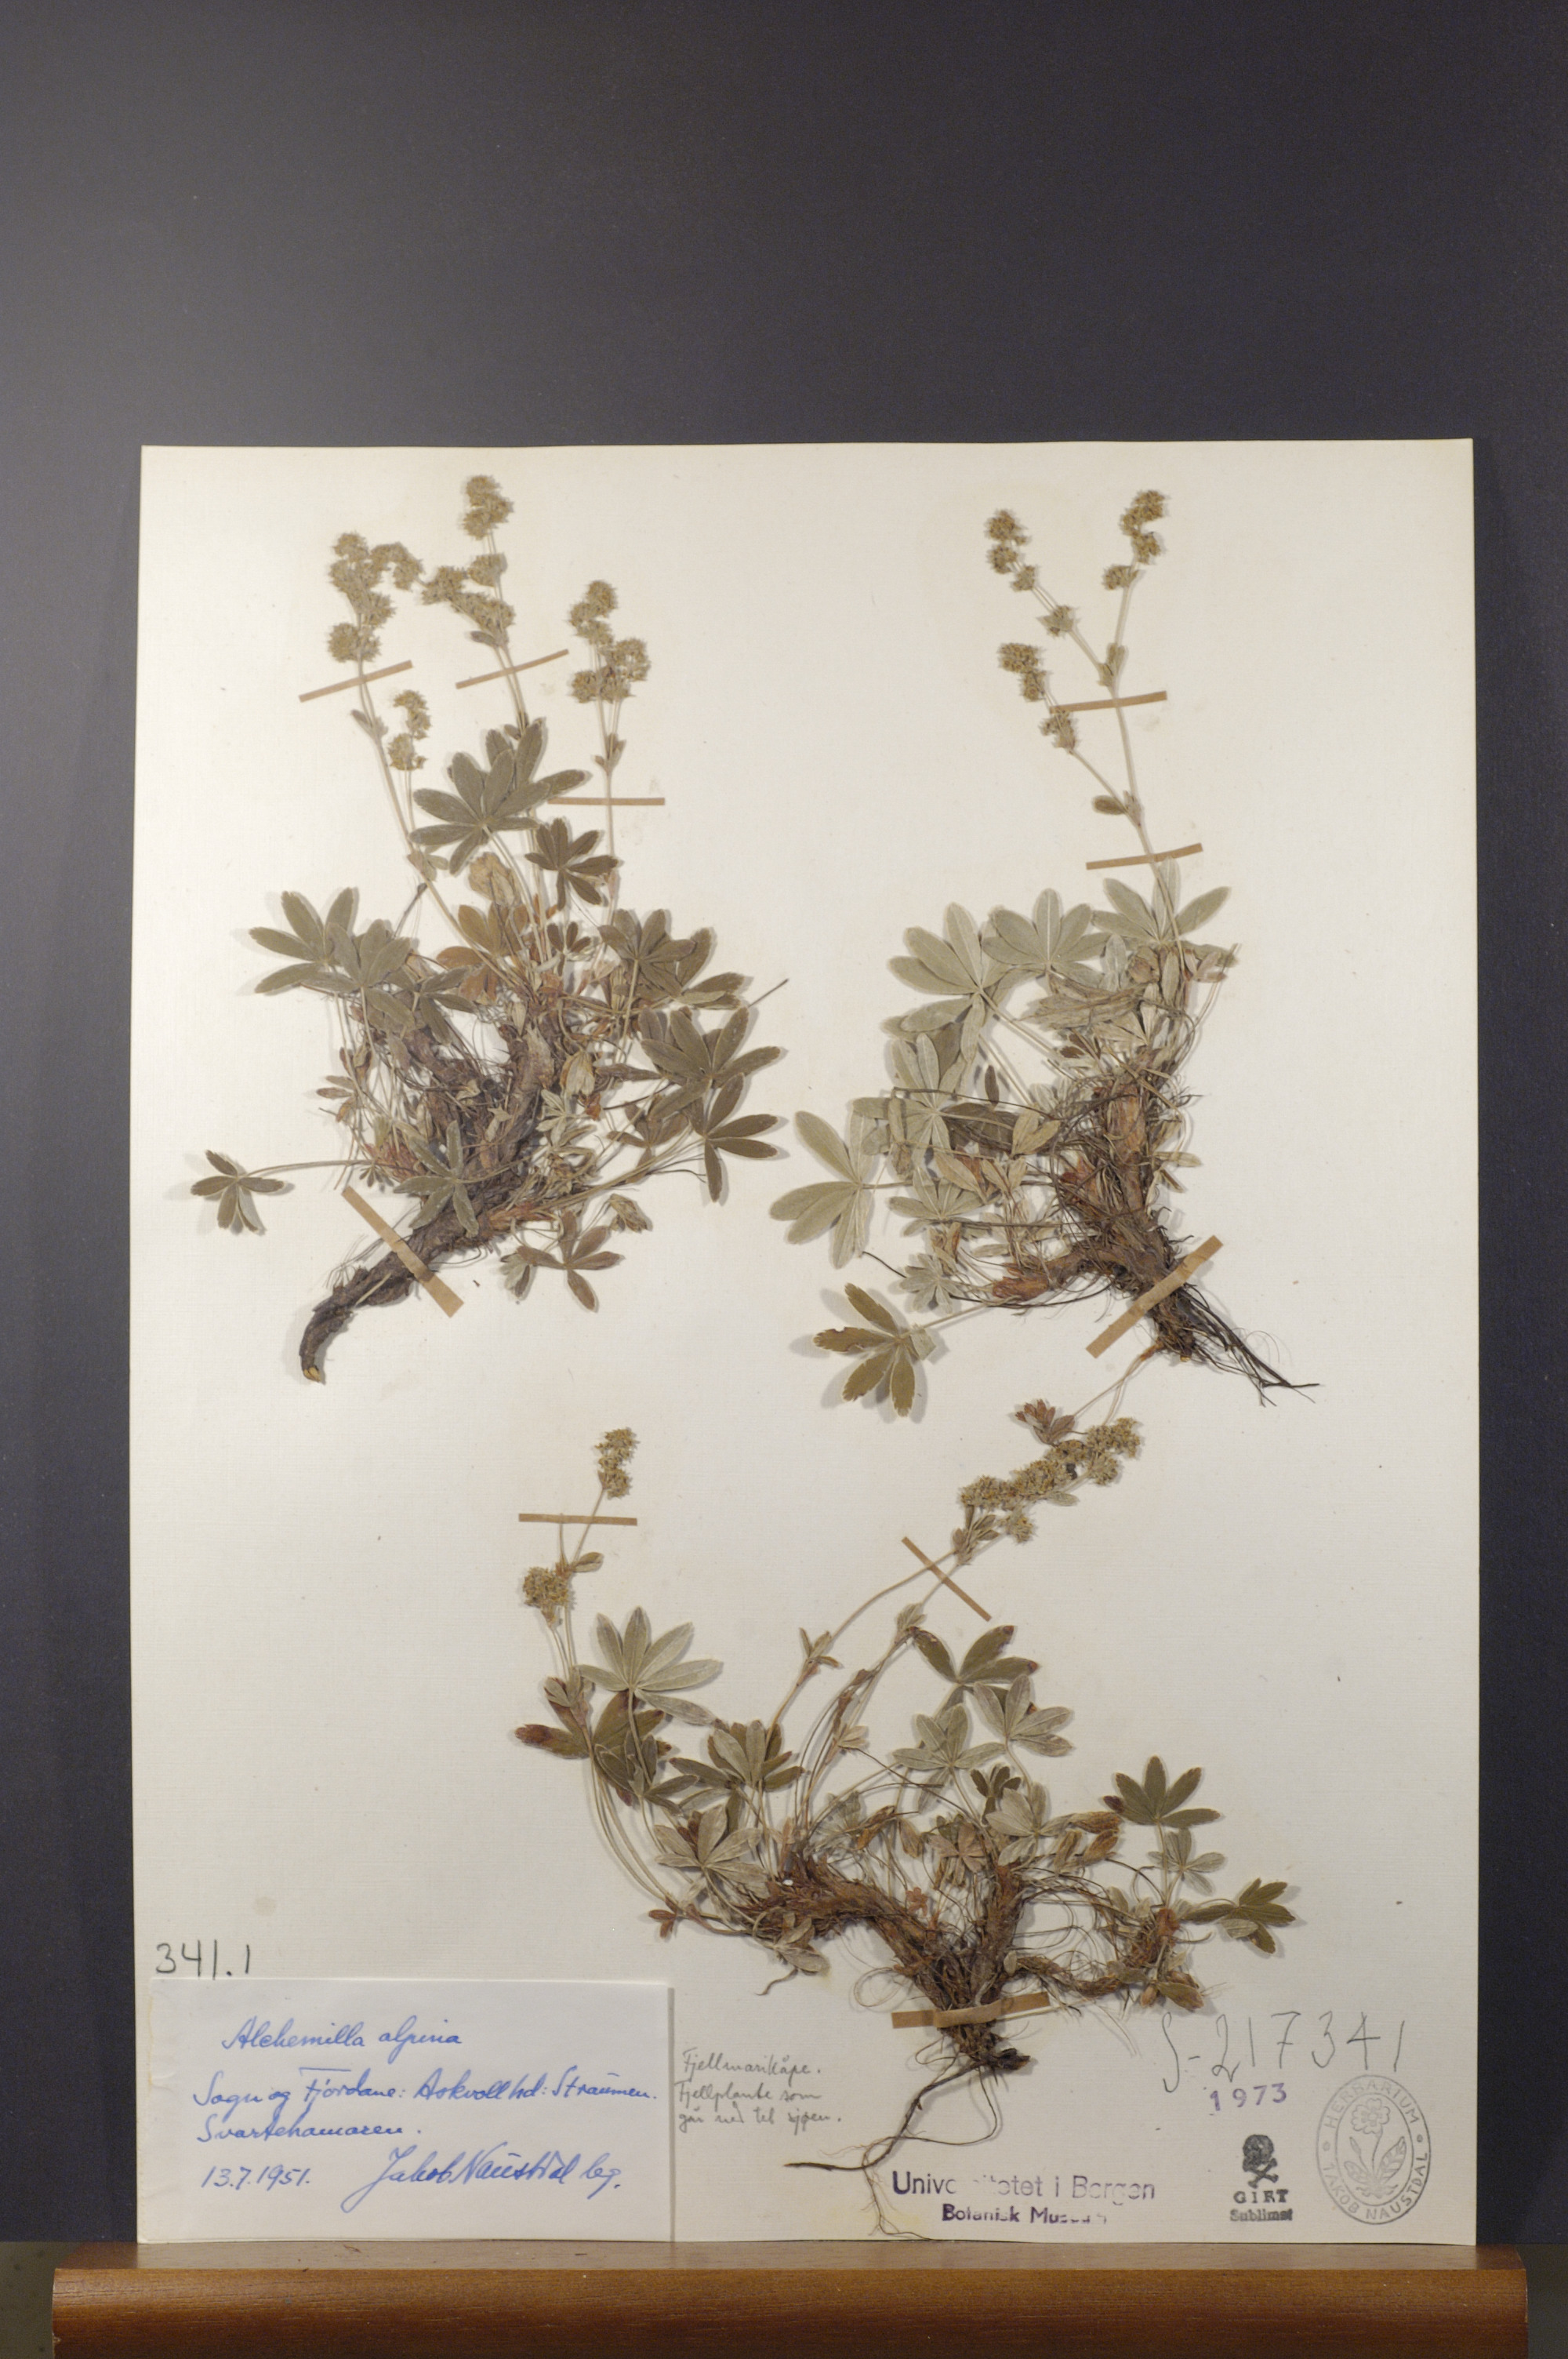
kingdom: Plantae
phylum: Tracheophyta
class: Magnoliopsida
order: Rosales
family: Rosaceae
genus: Alchemilla
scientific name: Alchemilla alpina
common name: Alpine lady's-mantle
